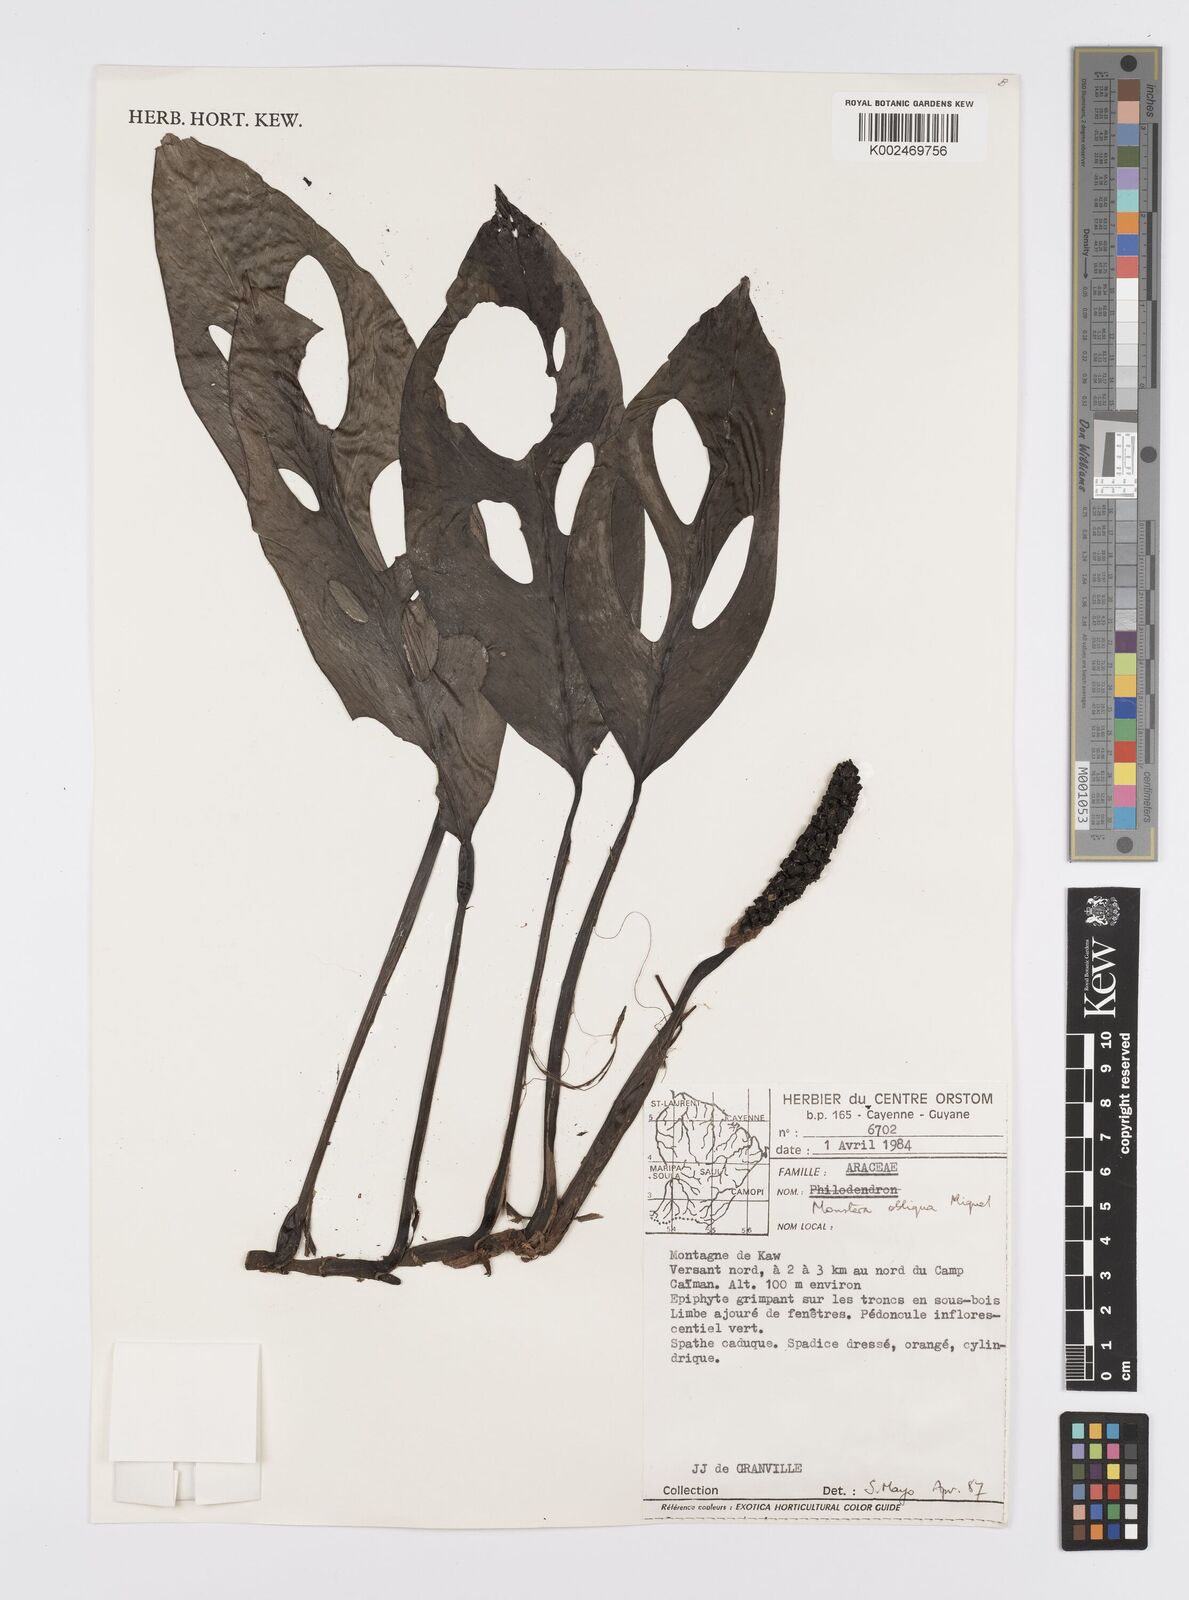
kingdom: Plantae
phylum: Tracheophyta
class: Liliopsida
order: Alismatales
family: Araceae
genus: Monstera
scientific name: Monstera obliqua
